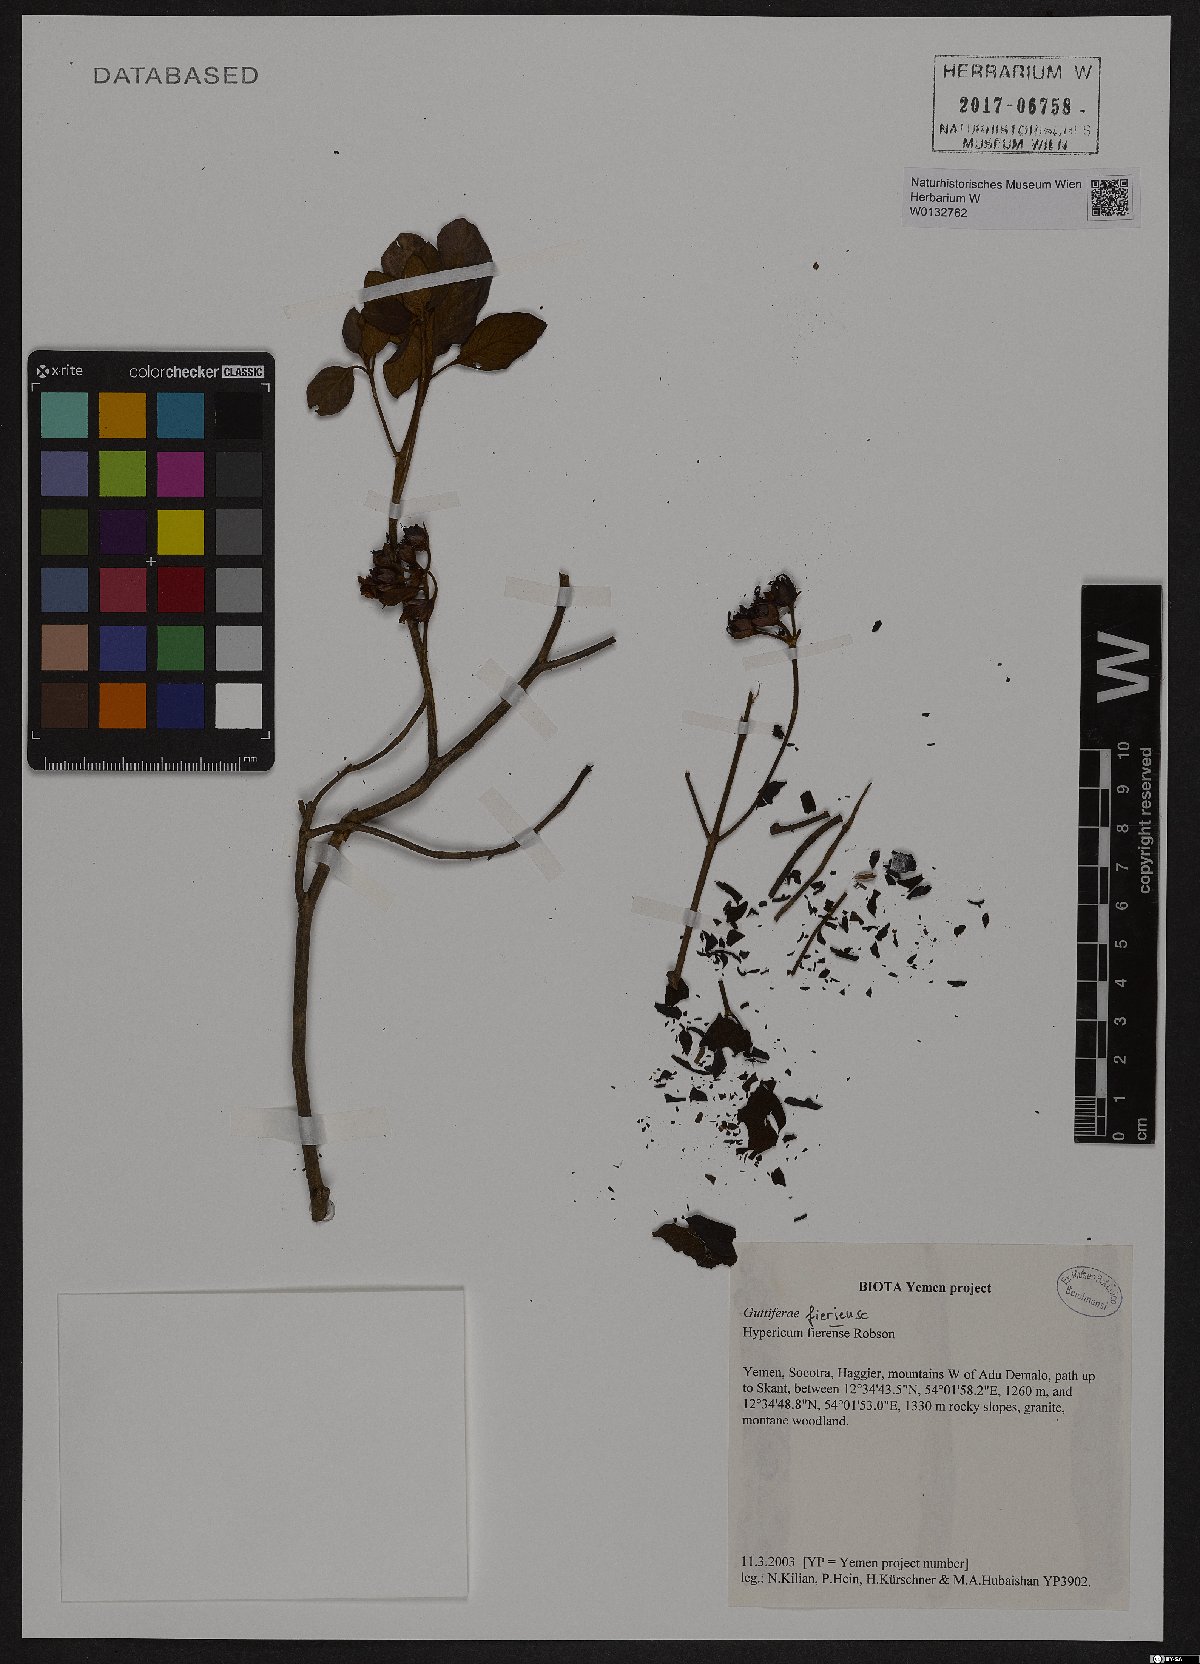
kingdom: Plantae
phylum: Tracheophyta
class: Magnoliopsida
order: Malpighiales
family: Hypericaceae
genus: Hypericum
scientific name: Hypericum fieriense
